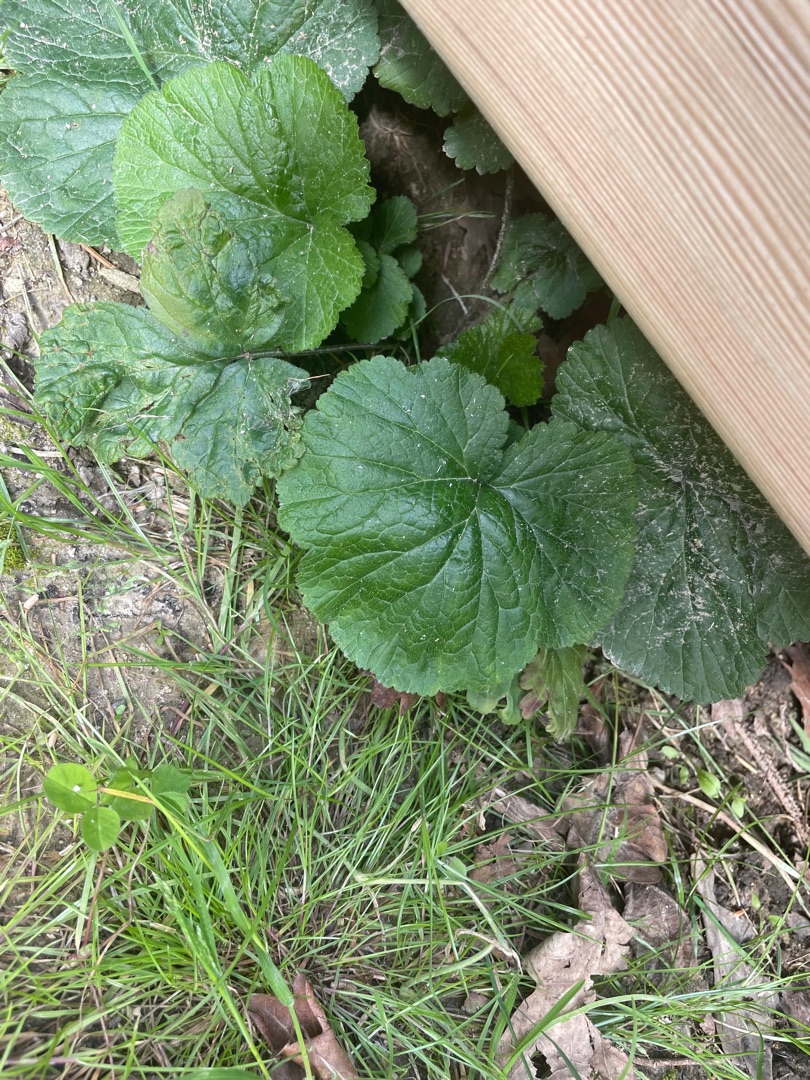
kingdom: Plantae
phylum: Tracheophyta
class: Magnoliopsida
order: Rosales
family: Rosaceae
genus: Geum
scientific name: Geum urbanum
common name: Feber-nellikerod
